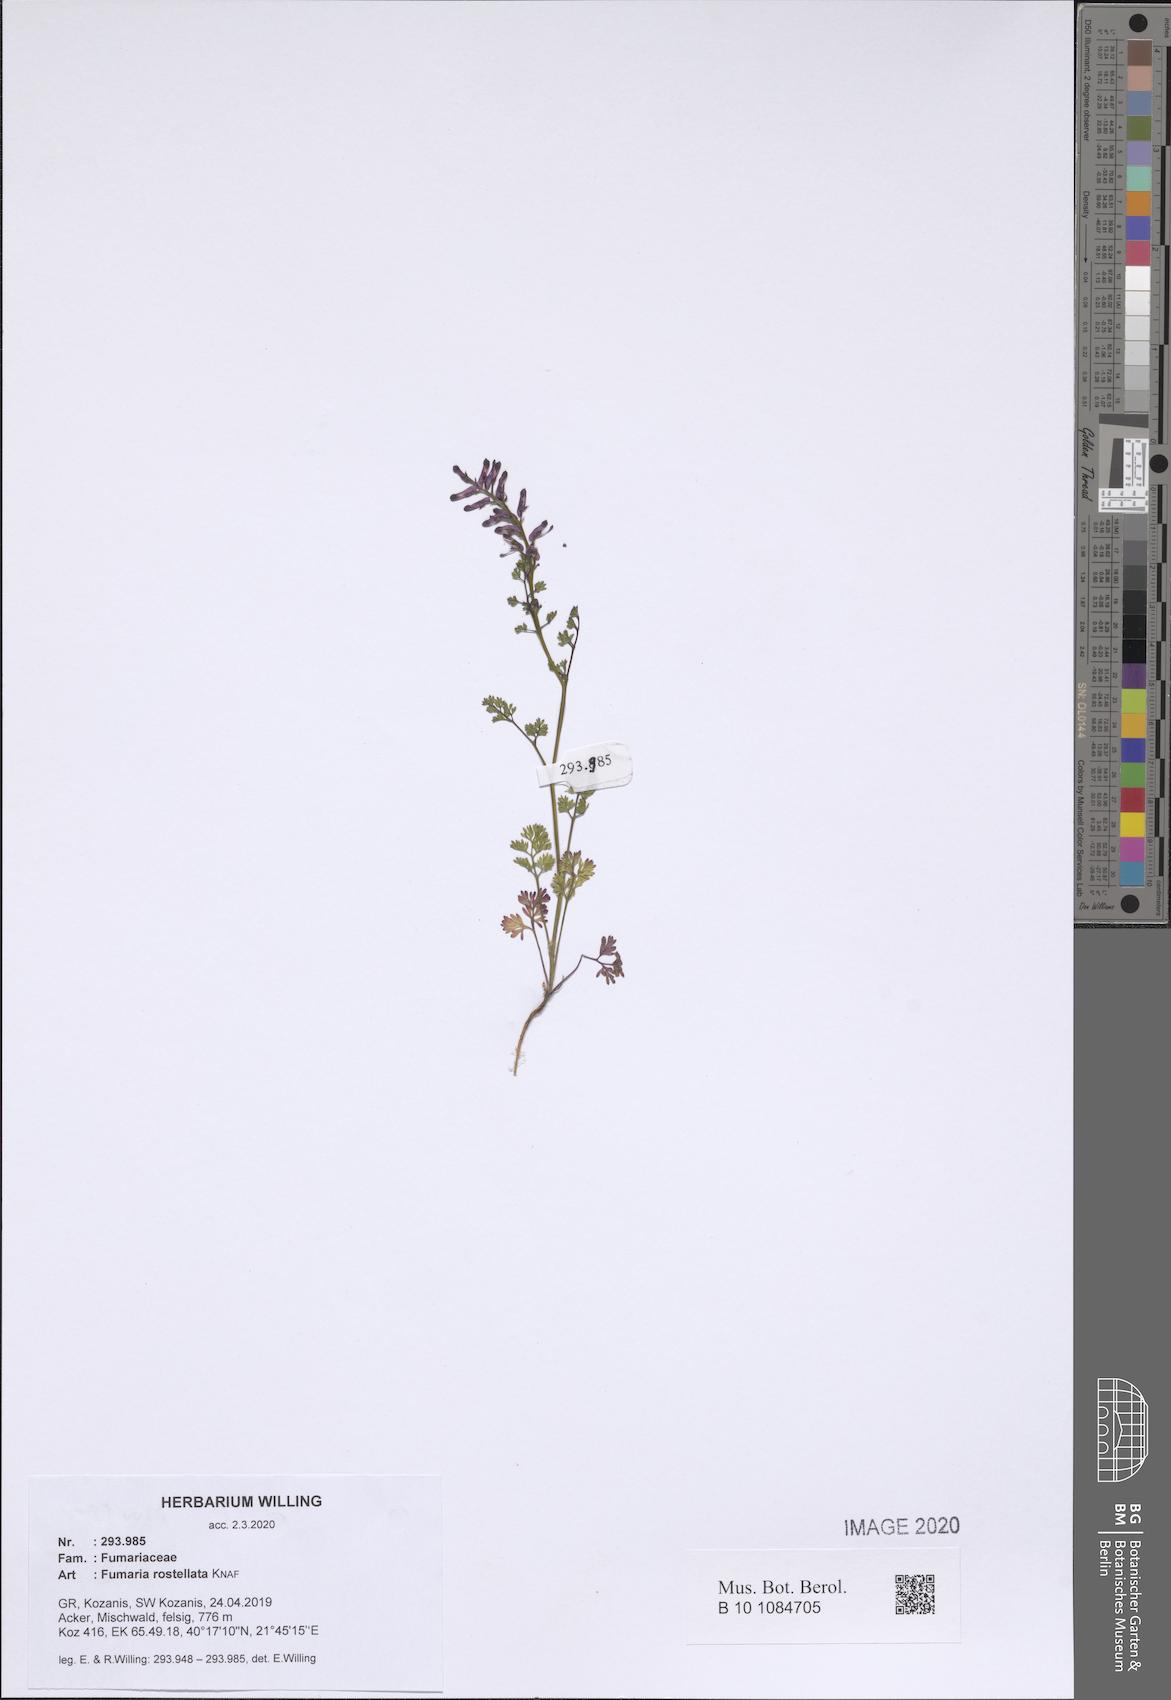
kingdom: Plantae
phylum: Tracheophyta
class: Magnoliopsida
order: Ranunculales
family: Papaveraceae
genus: Fumaria
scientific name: Fumaria rostellata
